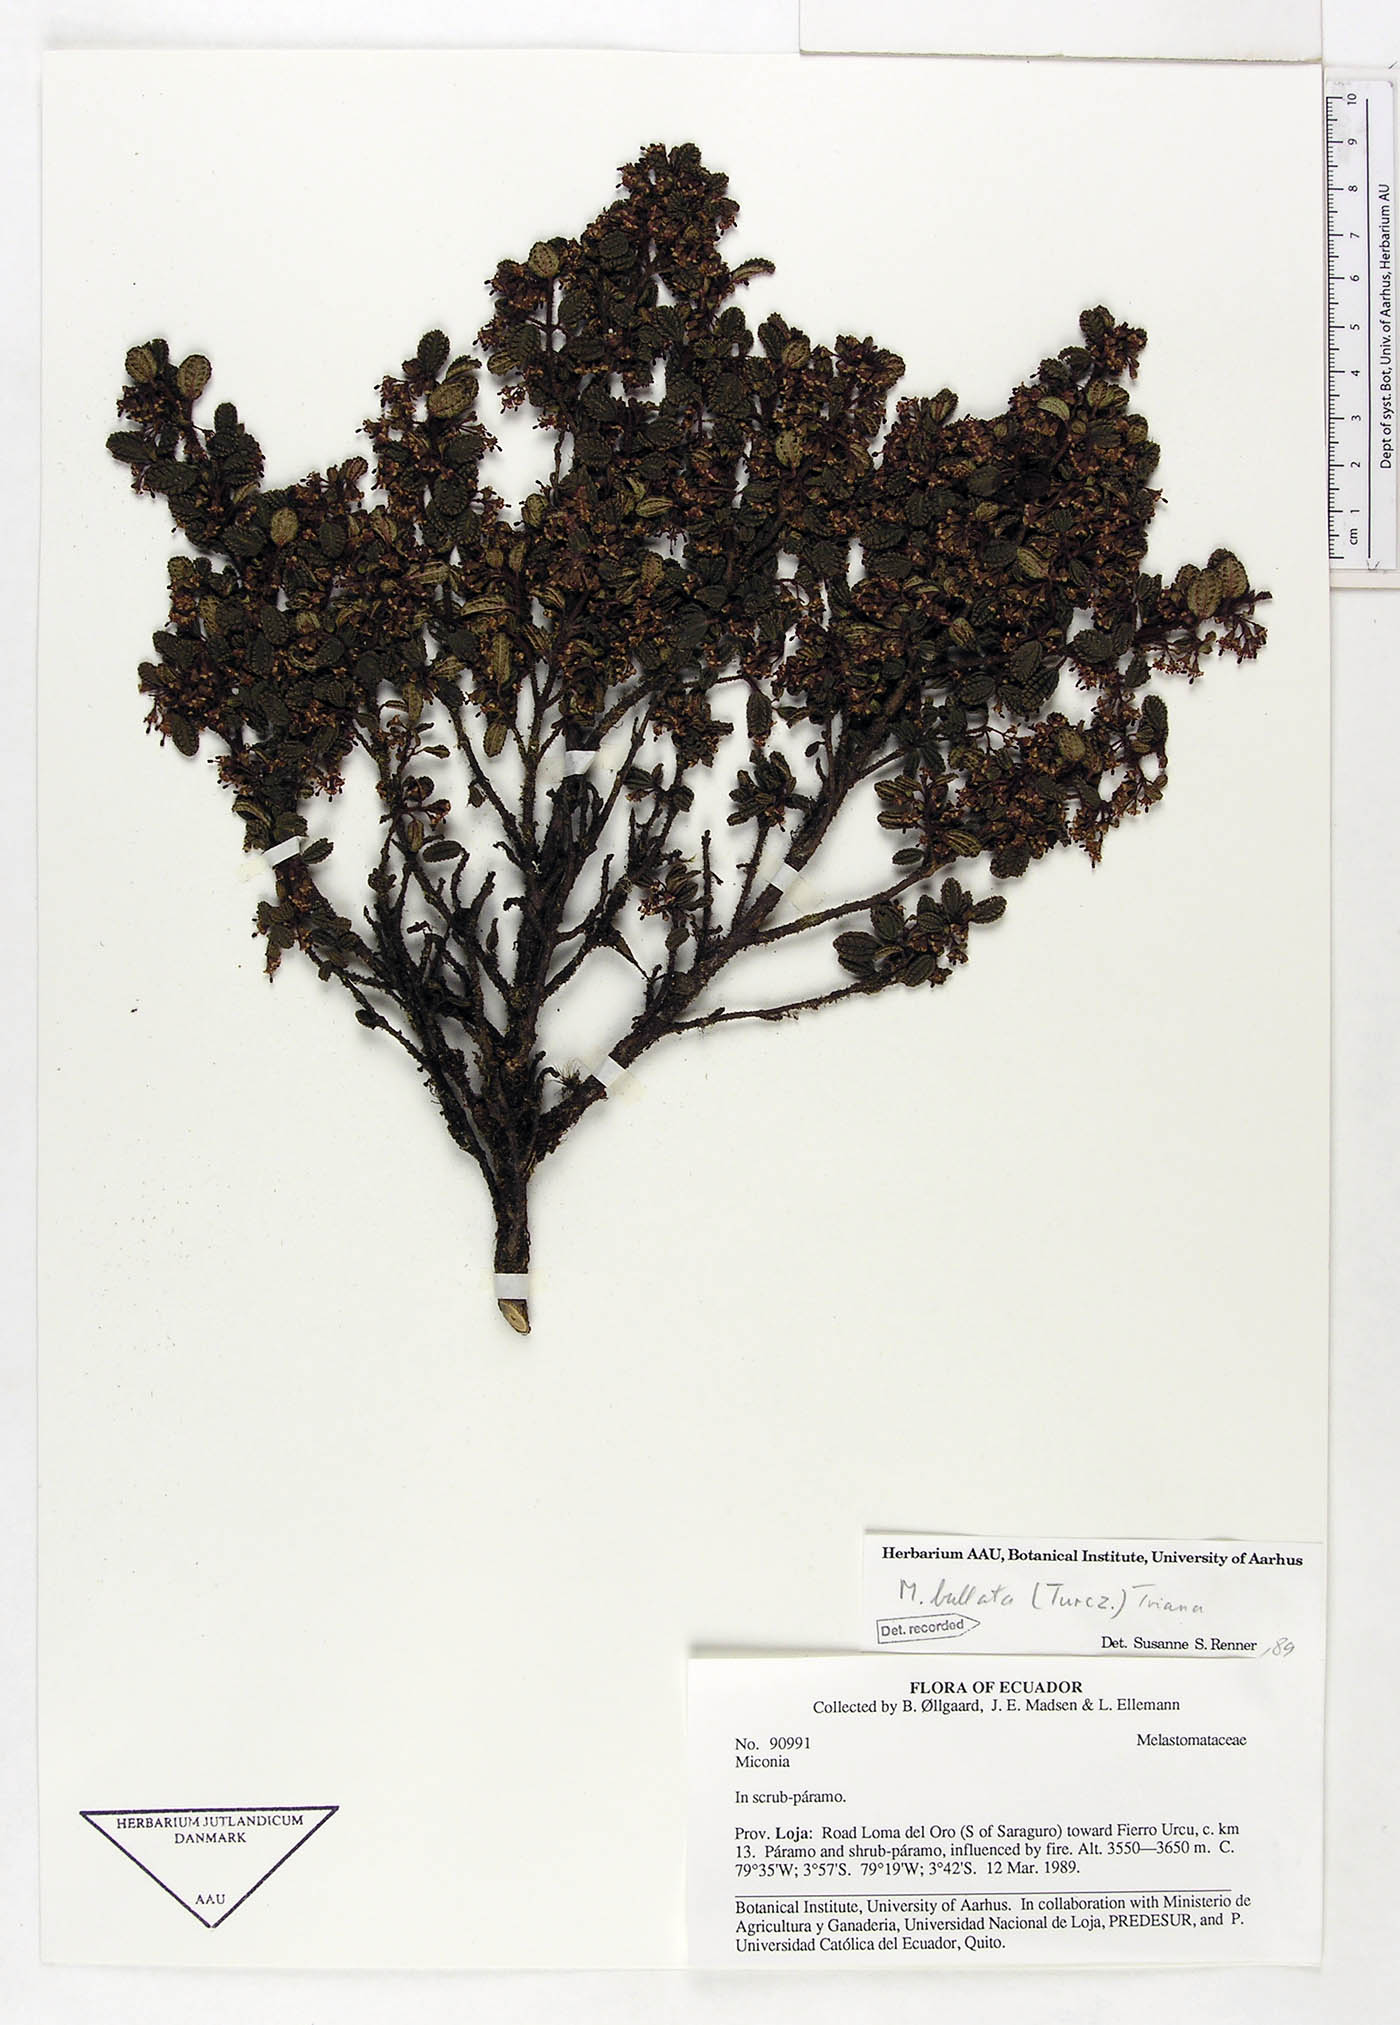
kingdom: Plantae
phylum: Tracheophyta
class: Magnoliopsida
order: Myrtales
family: Melastomataceae
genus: Miconia
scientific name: Miconia bullata
